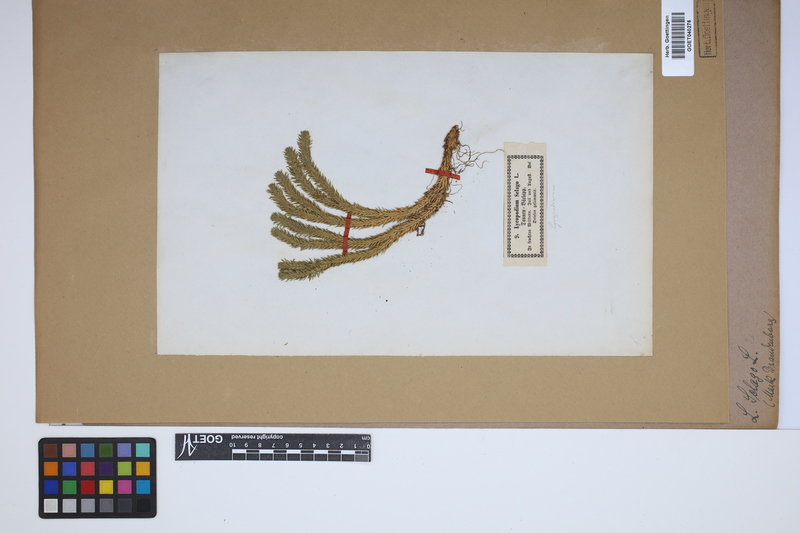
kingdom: Plantae
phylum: Tracheophyta
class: Lycopodiopsida
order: Lycopodiales
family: Lycopodiaceae
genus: Huperzia
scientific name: Huperzia selago
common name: Northern firmoss
